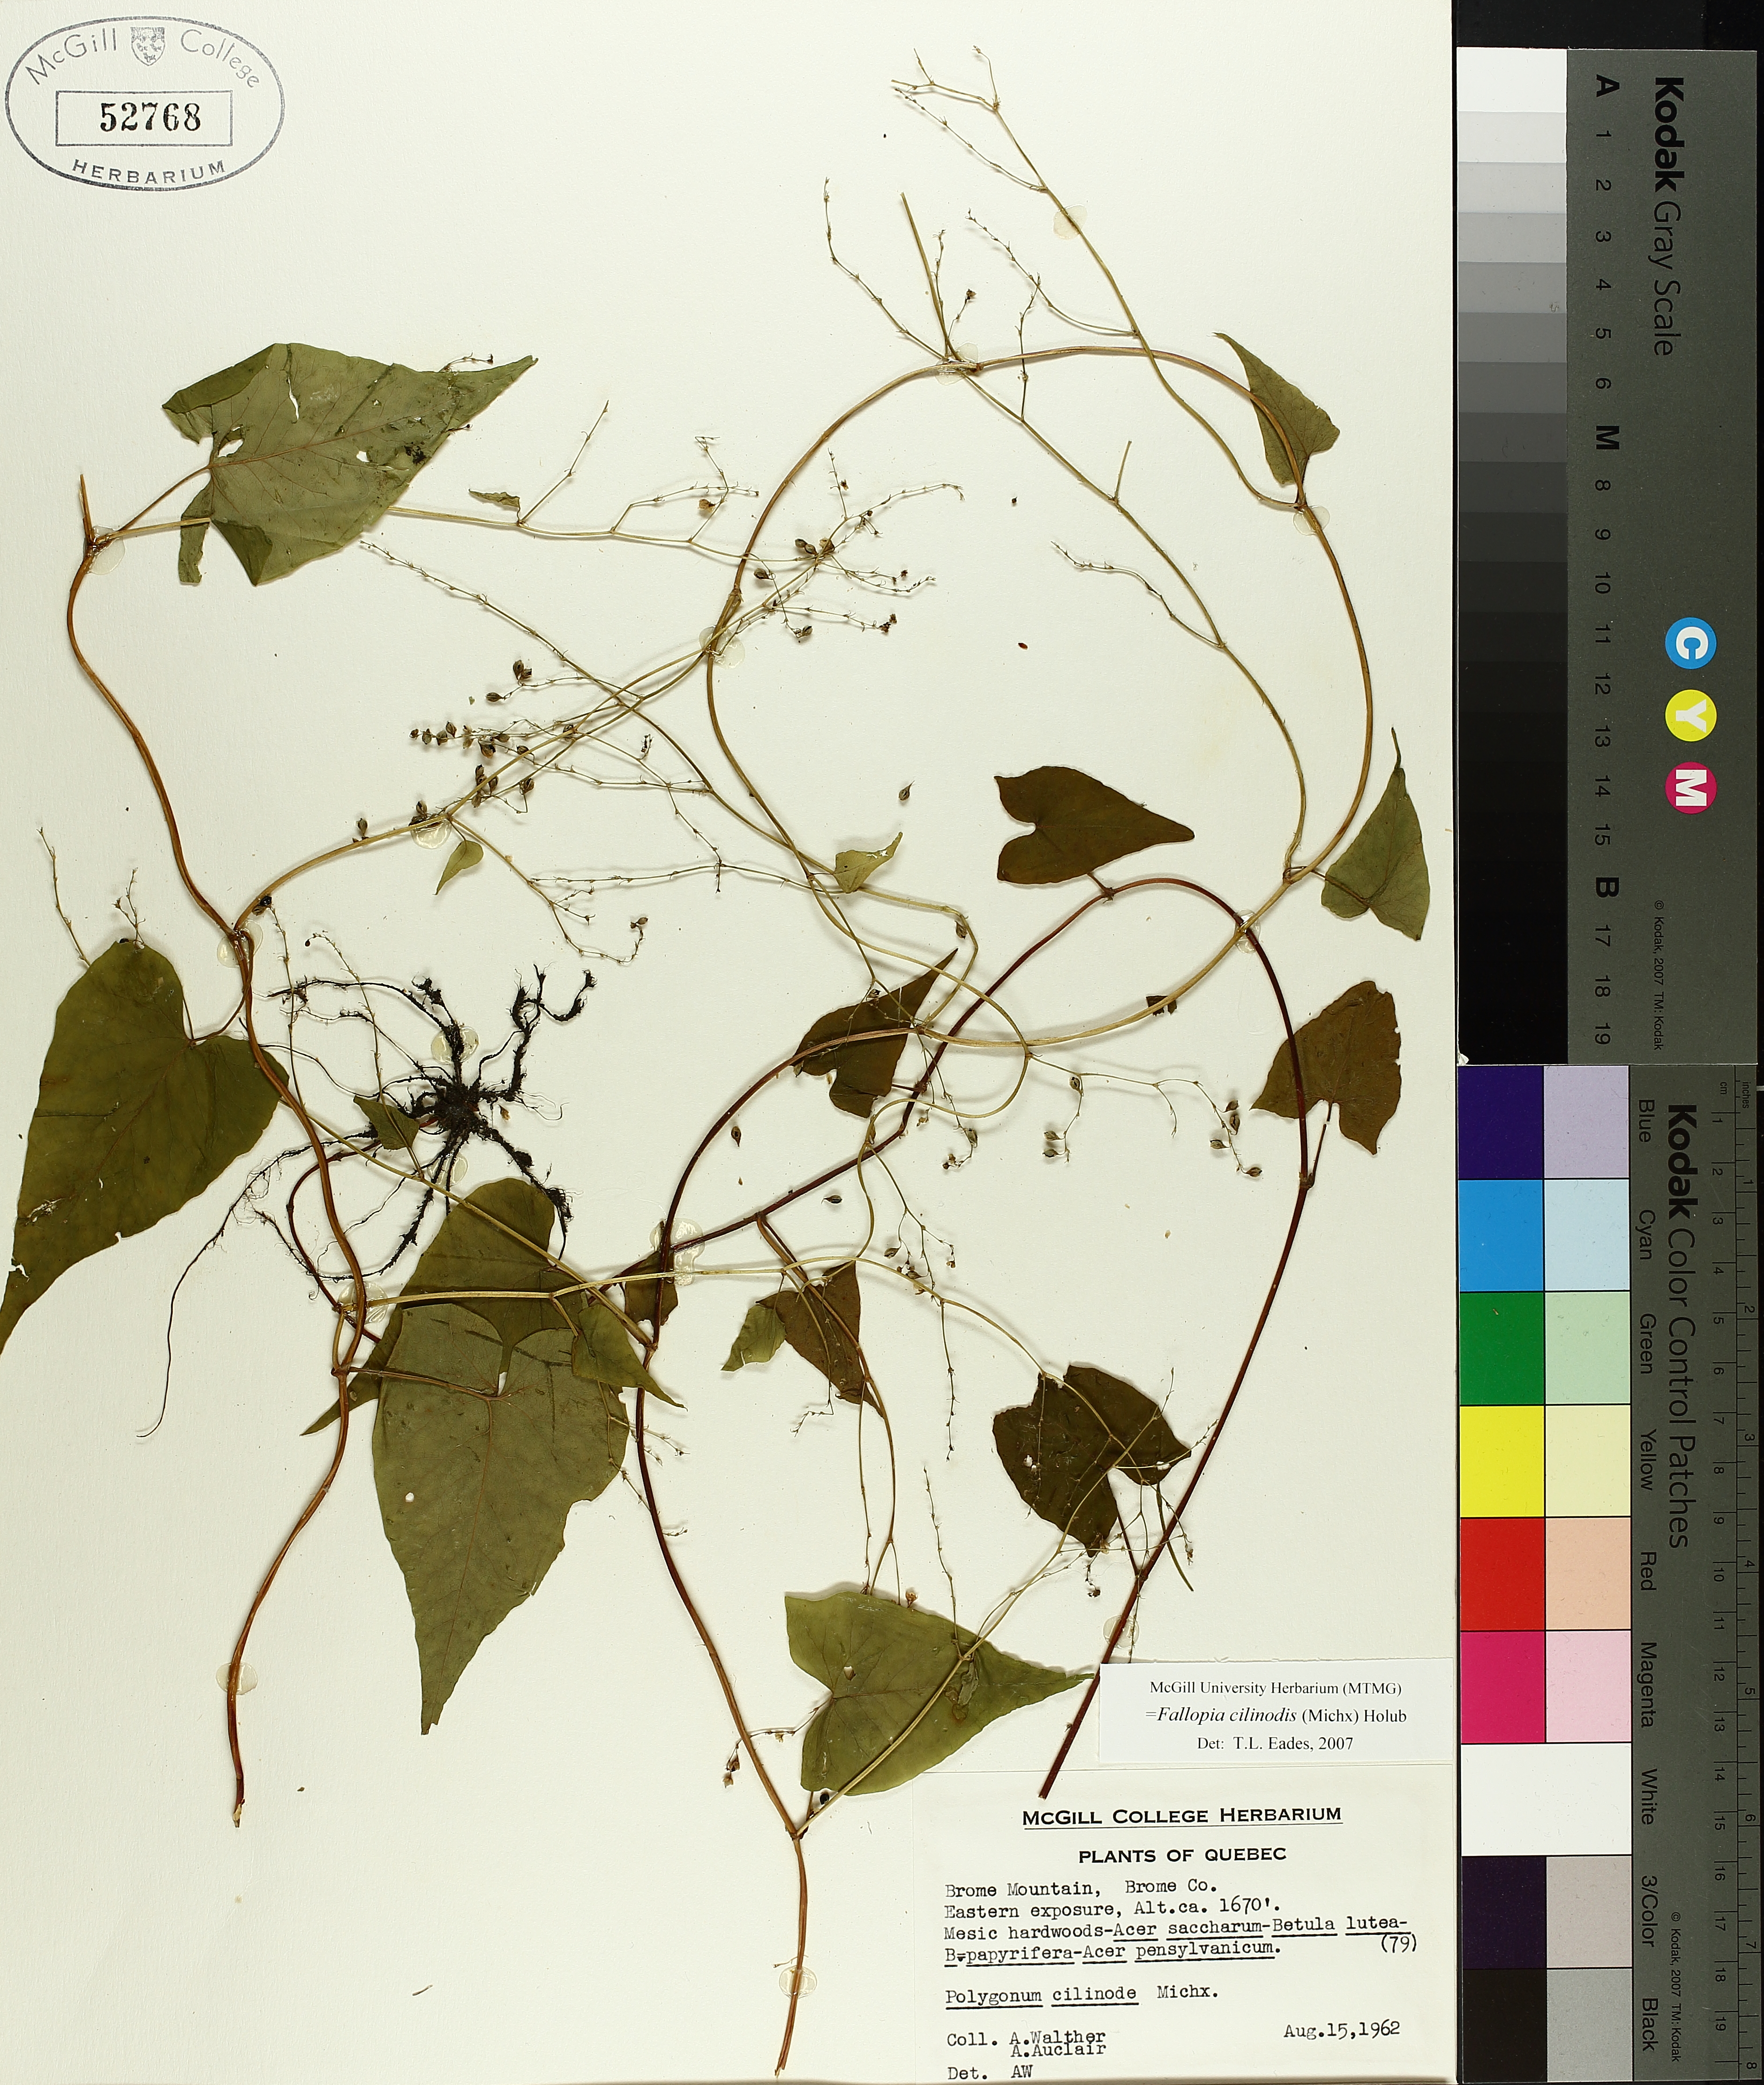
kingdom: Plantae
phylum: Tracheophyta
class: Magnoliopsida
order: Caryophyllales
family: Polygonaceae
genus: Parogonum
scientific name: Parogonum ciliinode
